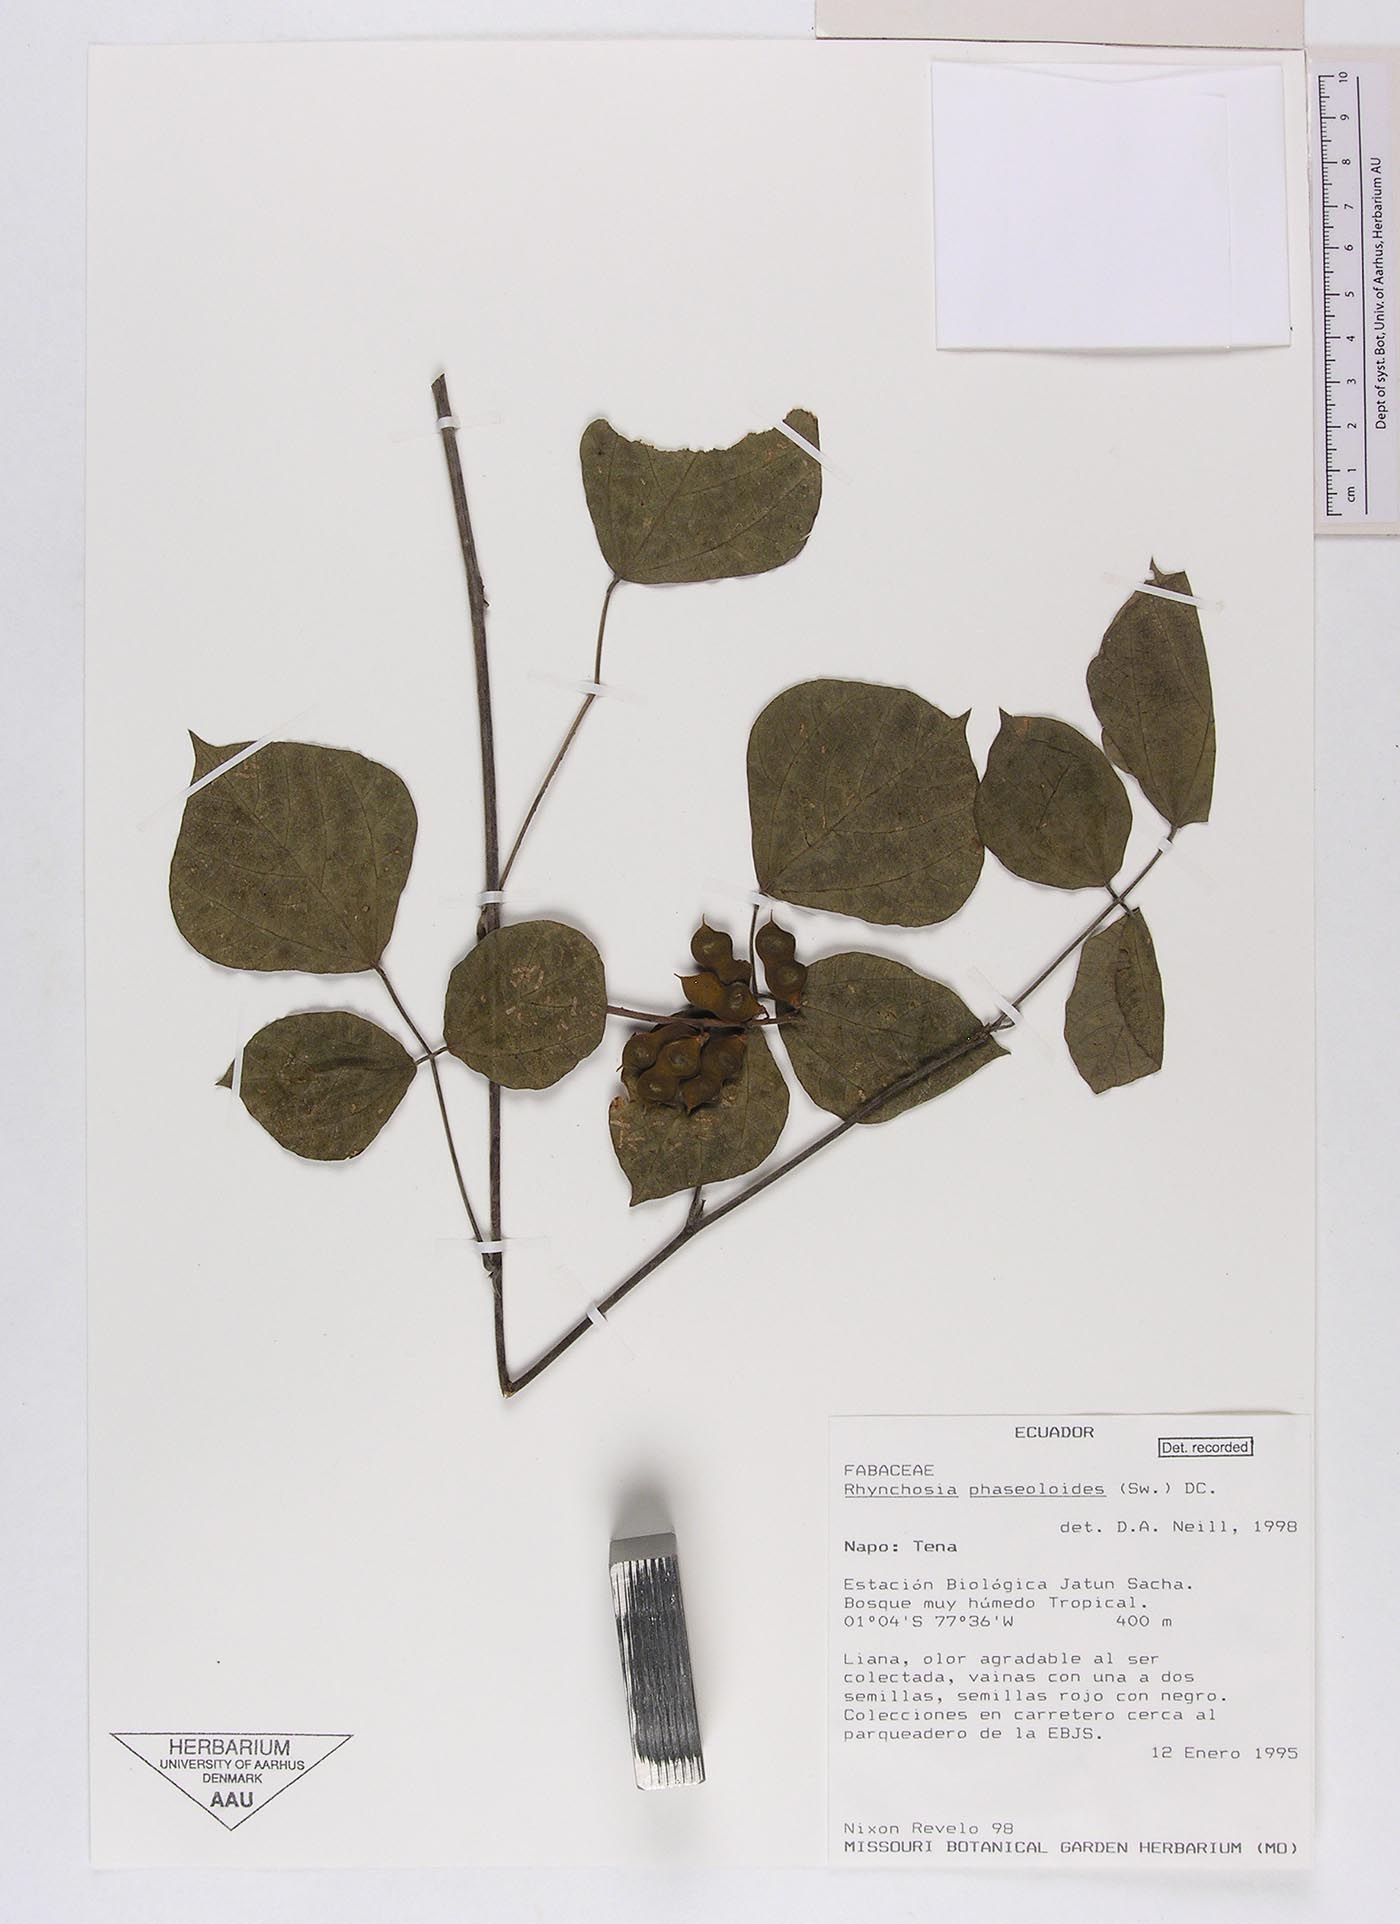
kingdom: Plantae
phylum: Tracheophyta
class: Magnoliopsida
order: Fabales
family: Fabaceae
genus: Rhynchosia
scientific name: Rhynchosia phaseoloides
